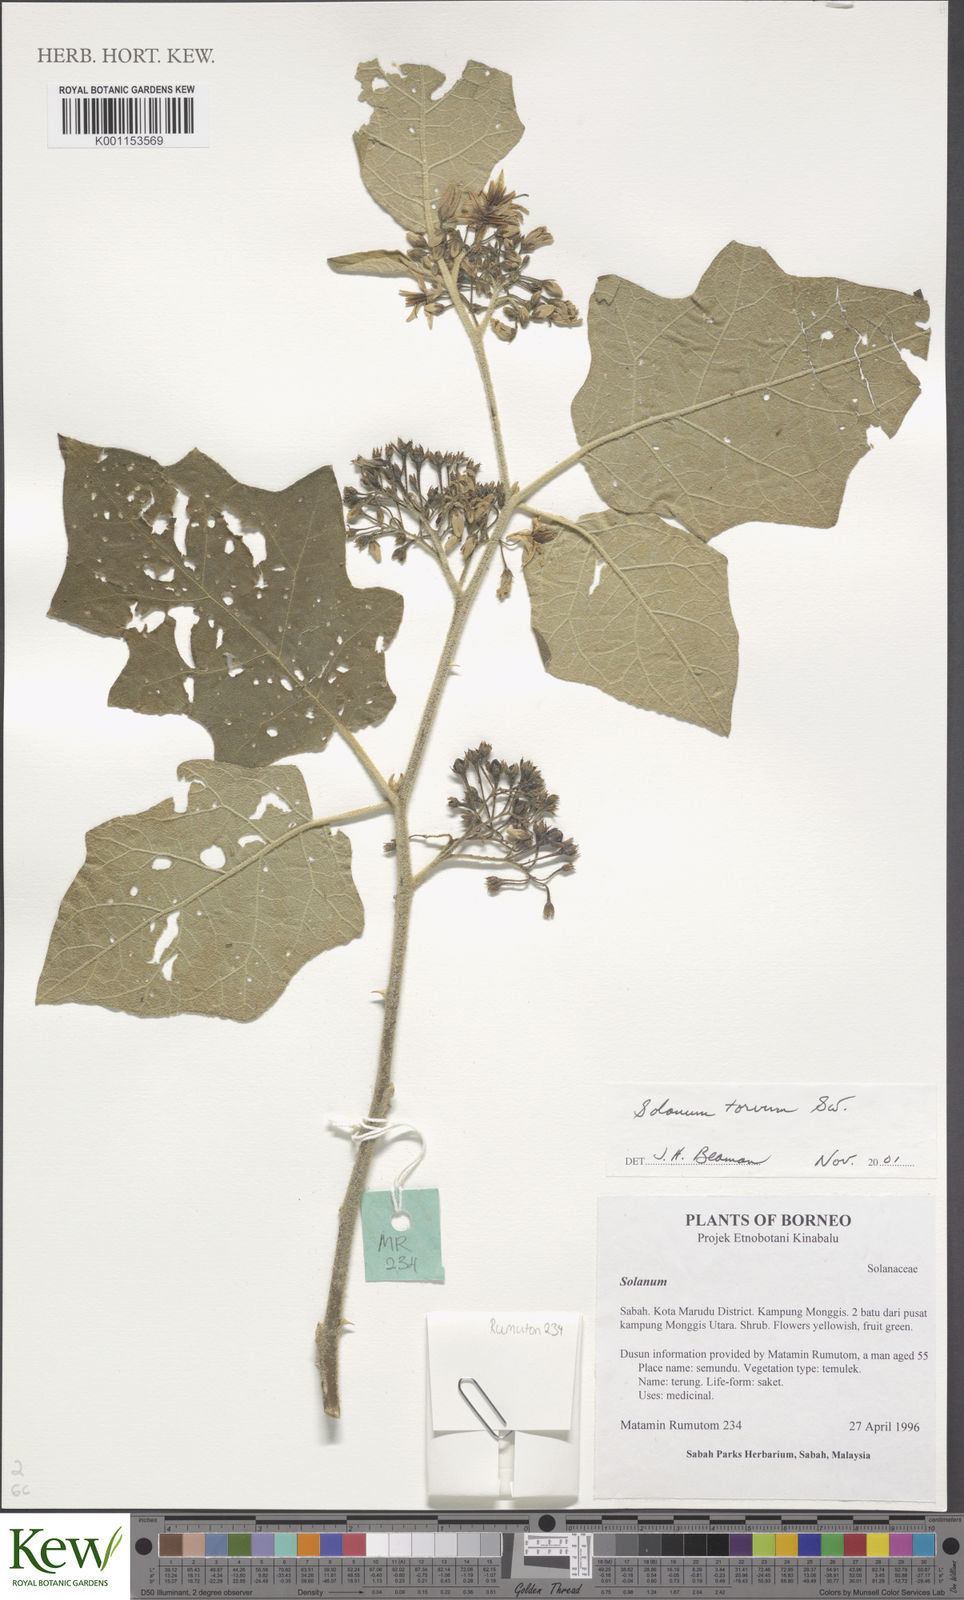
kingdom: Plantae
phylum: Tracheophyta
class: Magnoliopsida
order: Solanales
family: Solanaceae
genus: Solanum
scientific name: Solanum torvum
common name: Turkey berry
